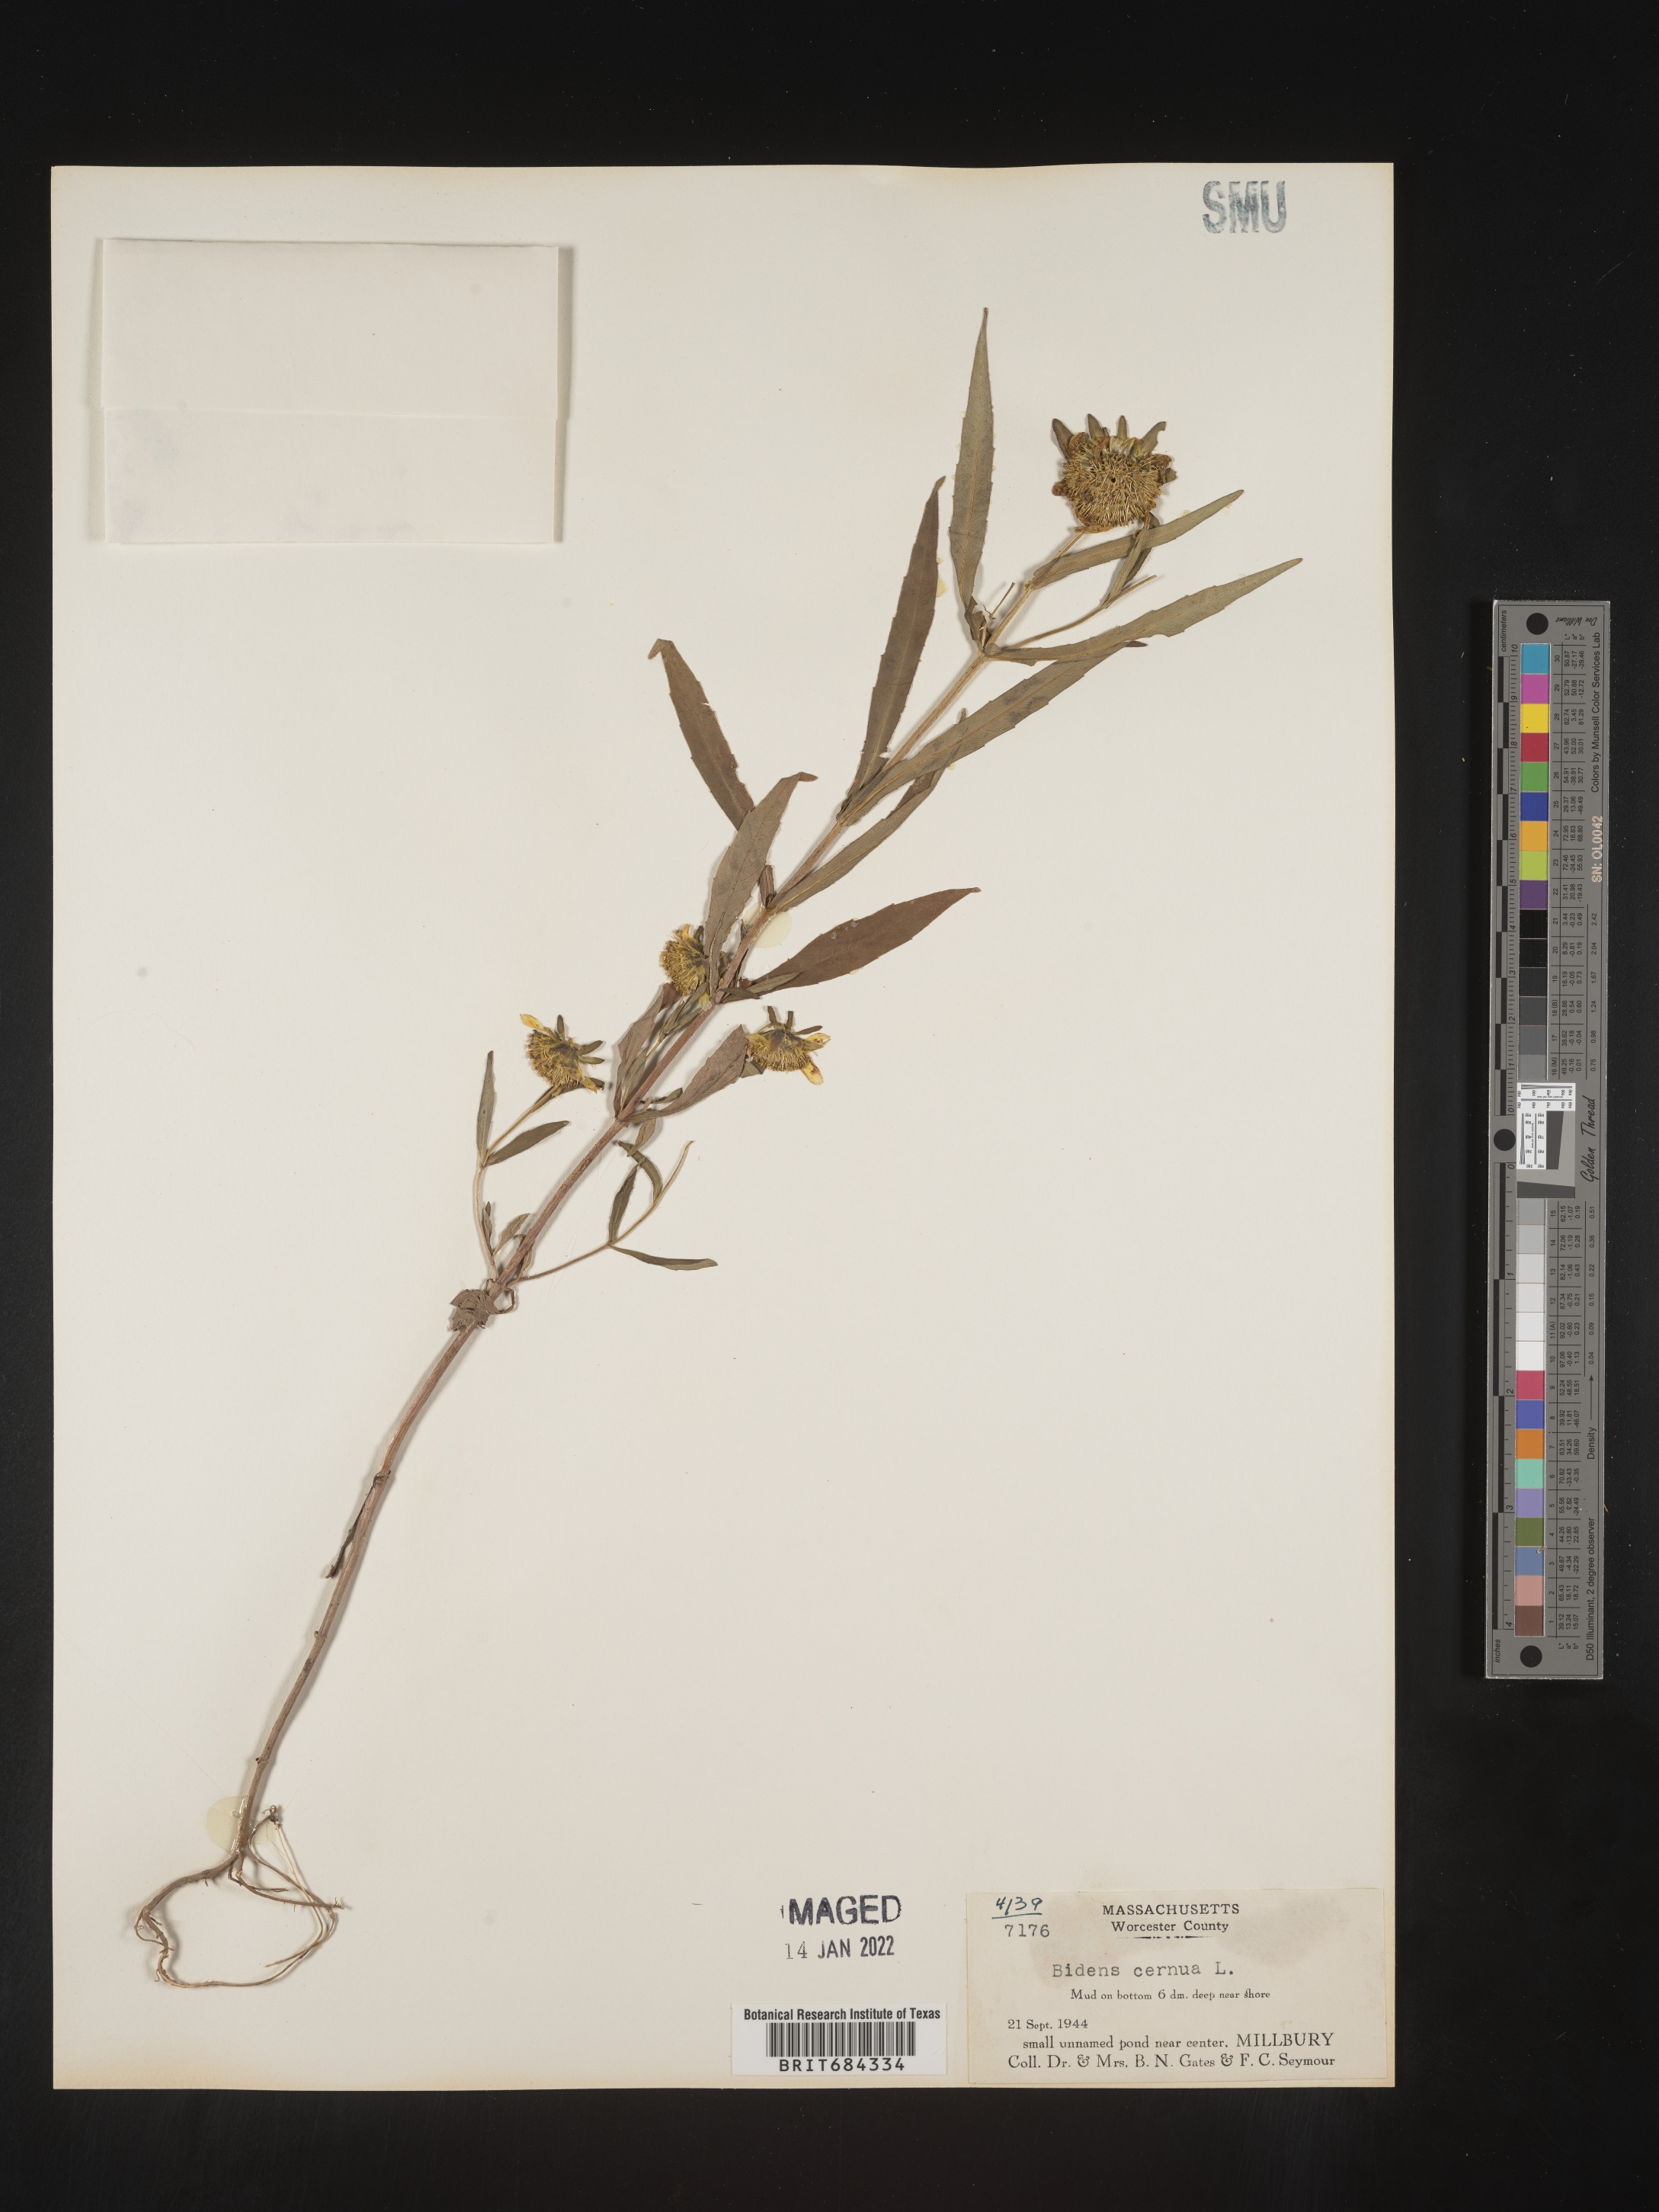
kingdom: Plantae
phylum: Tracheophyta
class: Magnoliopsida
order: Asterales
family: Asteraceae
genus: Bidens
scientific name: Bidens cernua
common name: Nodding bur-marigold
